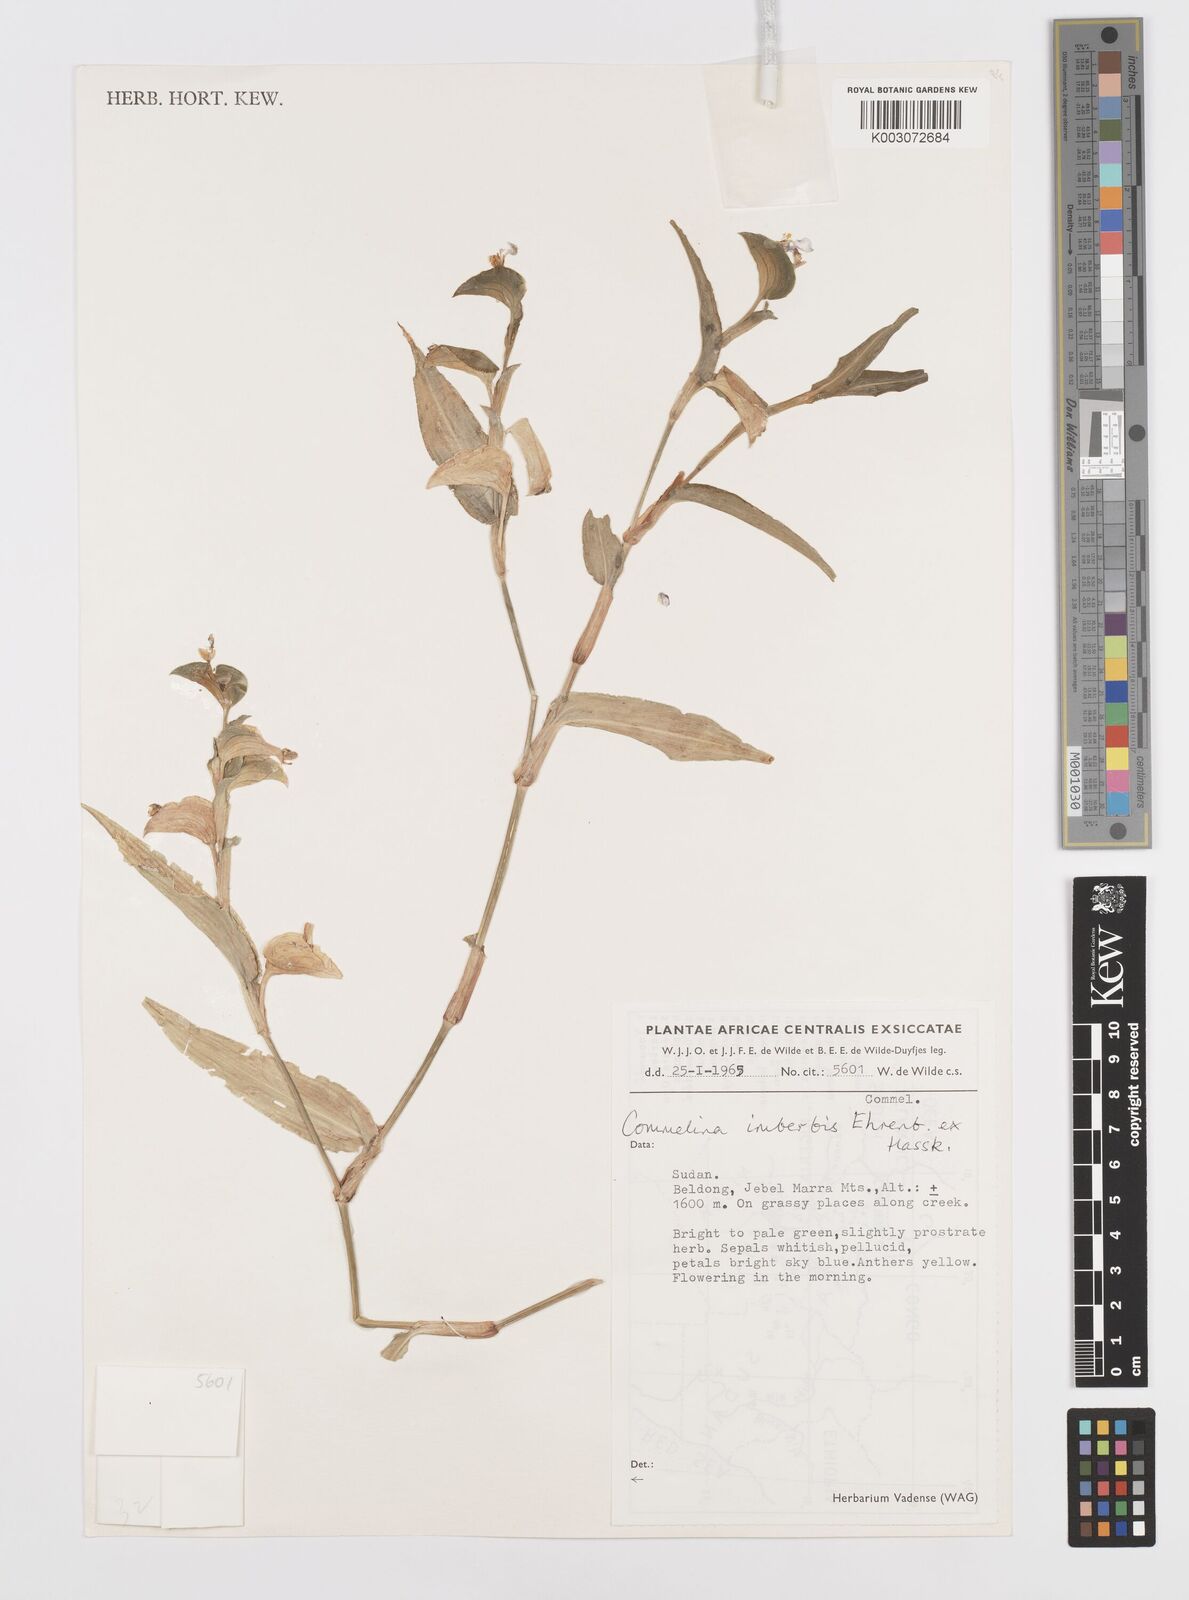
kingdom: Plantae
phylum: Tracheophyta
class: Liliopsida
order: Commelinales
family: Commelinaceae
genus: Commelina
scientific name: Commelina imberbis
